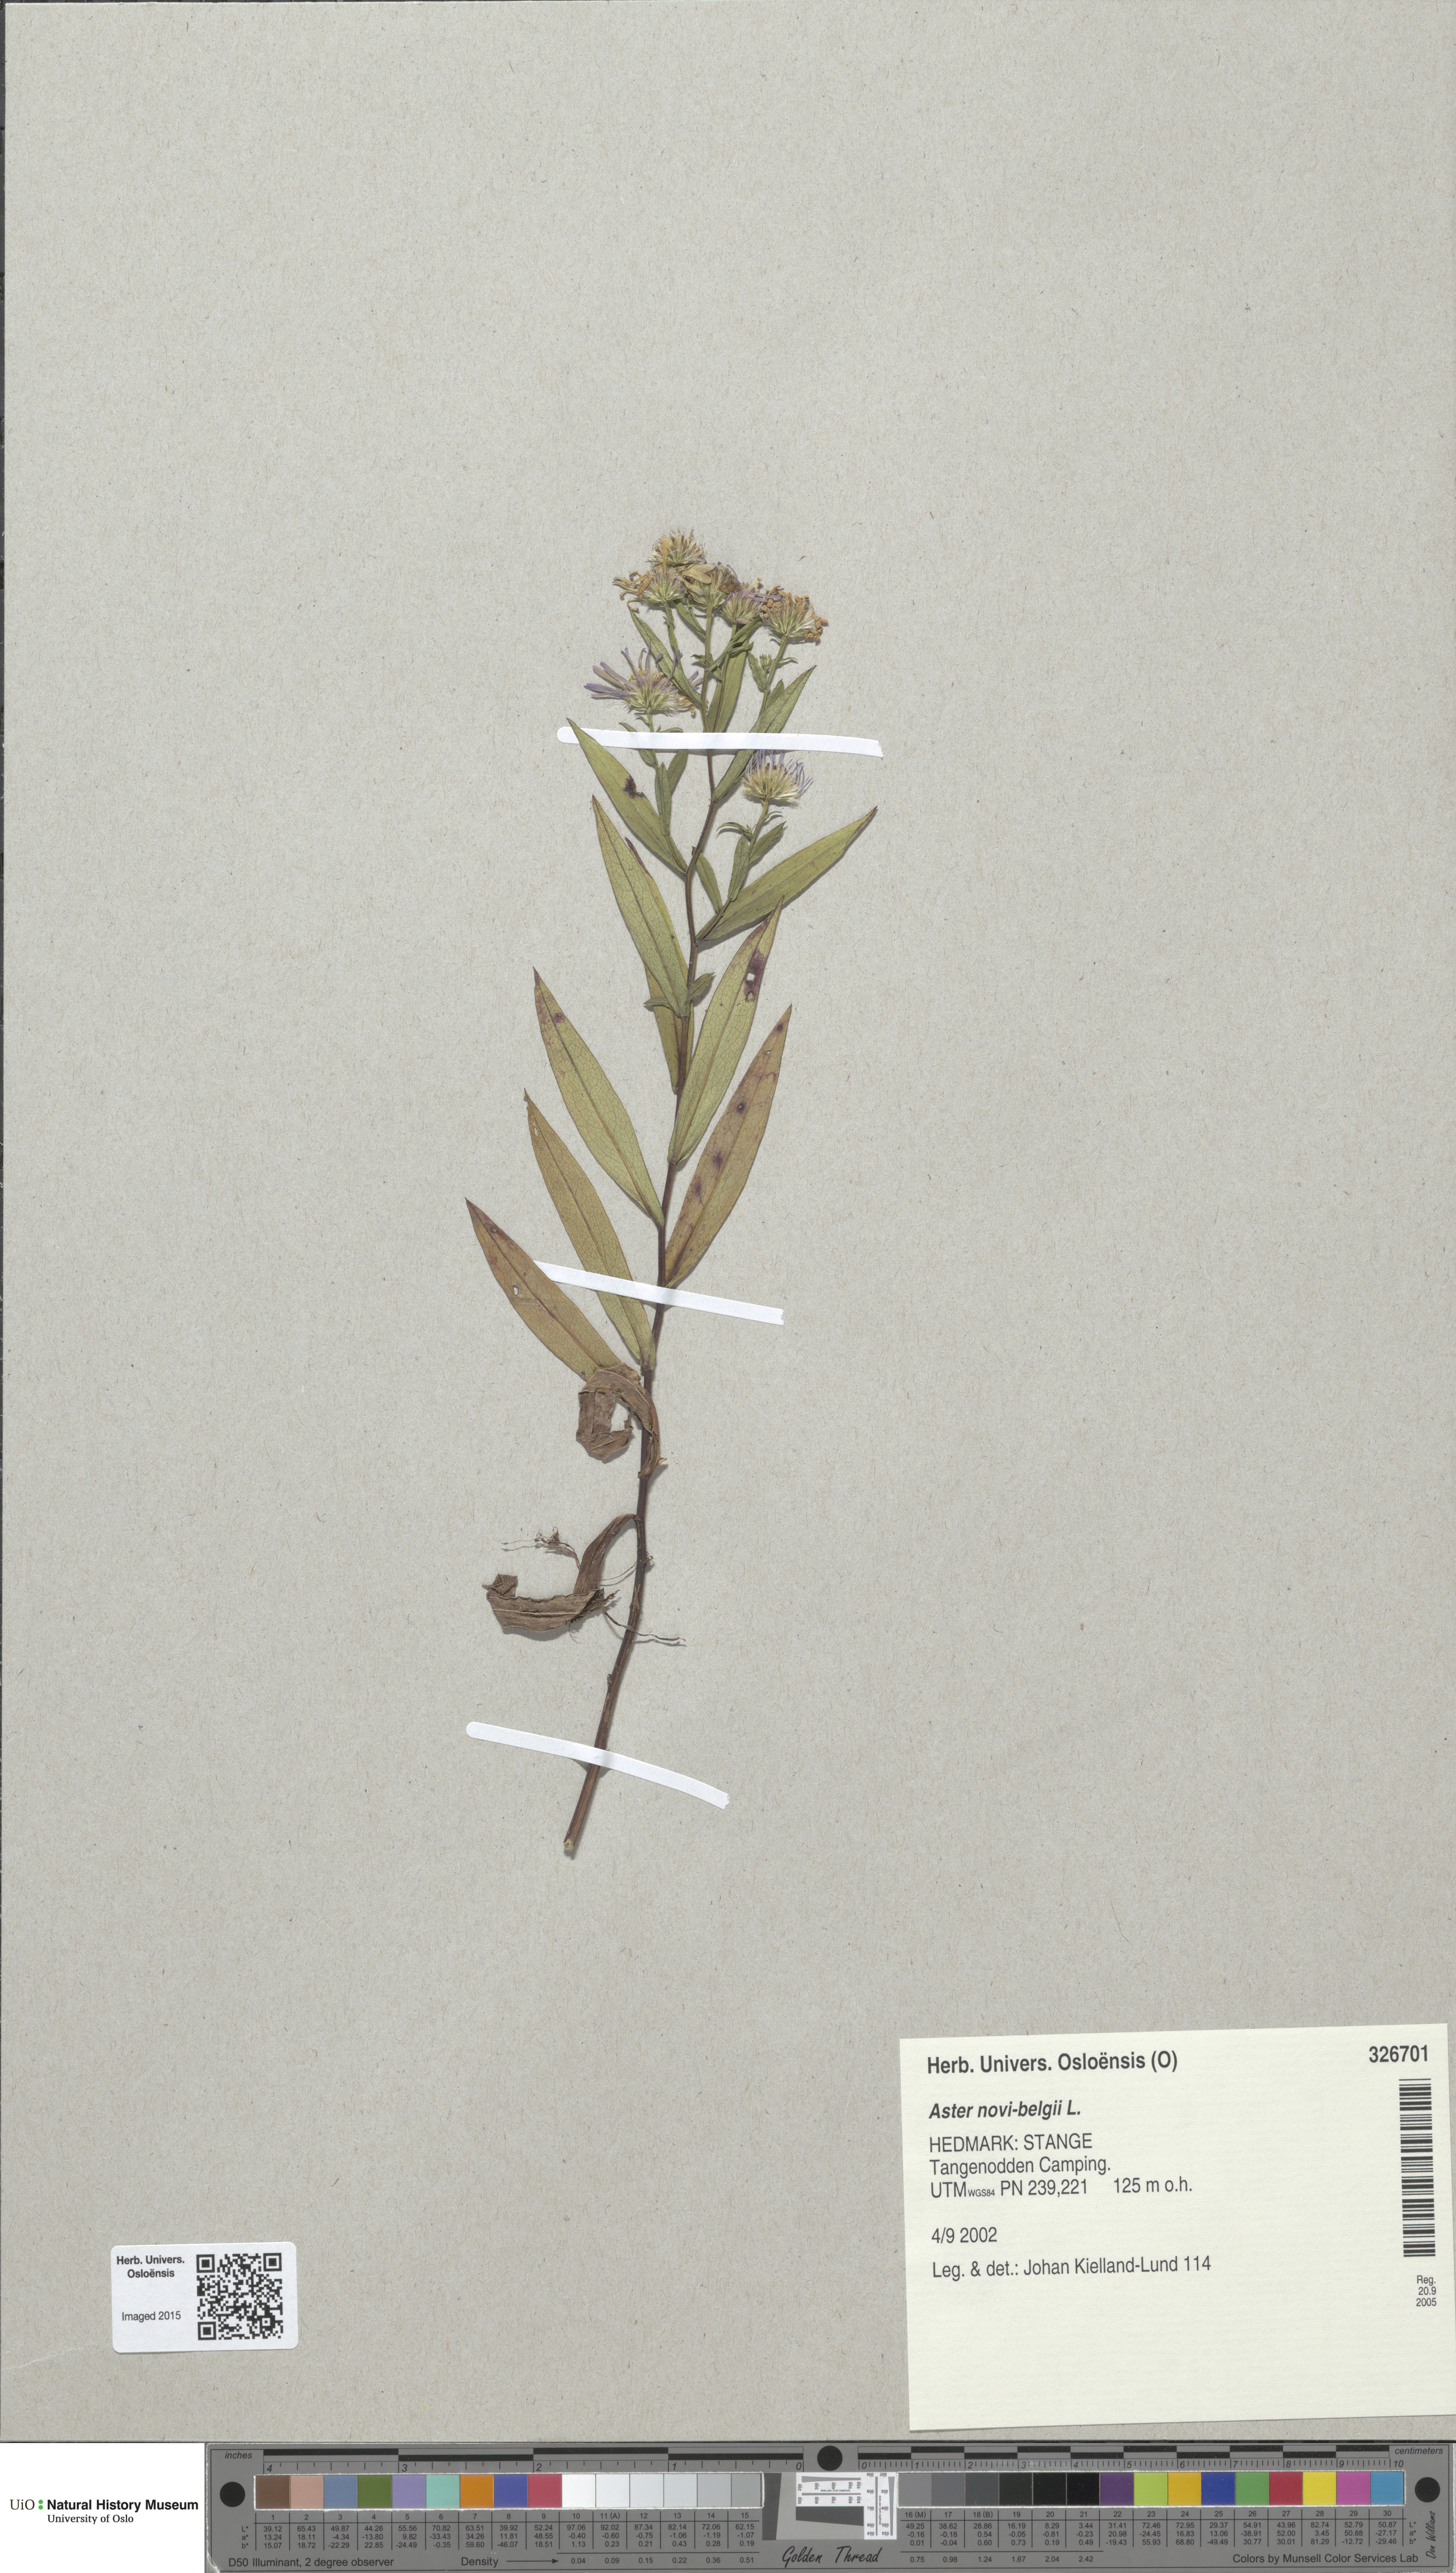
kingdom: Plantae
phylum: Tracheophyta
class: Magnoliopsida
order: Asterales
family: Asteraceae
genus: Symphyotrichum
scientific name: Symphyotrichum versicolor
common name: Late michaelmas daisy
